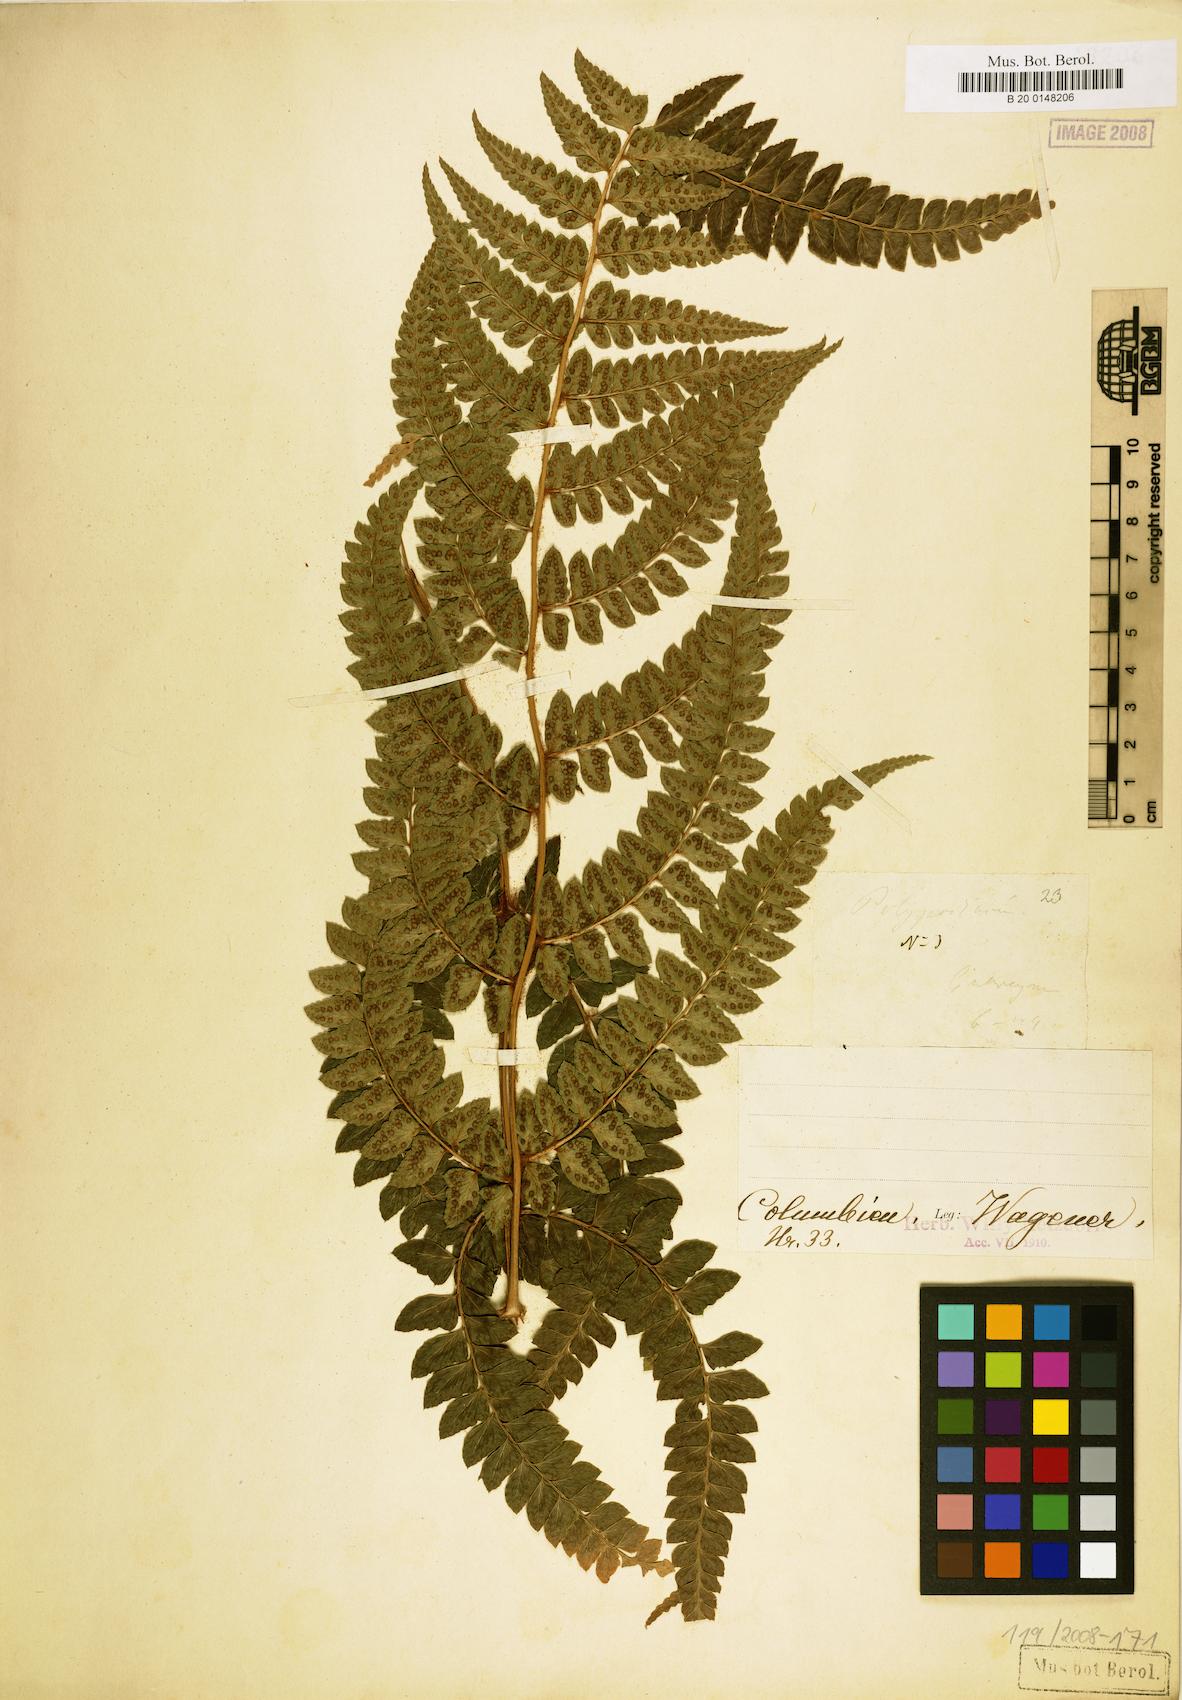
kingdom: Plantae
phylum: Tracheophyta
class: Polypodiopsida
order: Polypodiales
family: Dryopteridaceae
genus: Polystichum
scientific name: Polystichum
